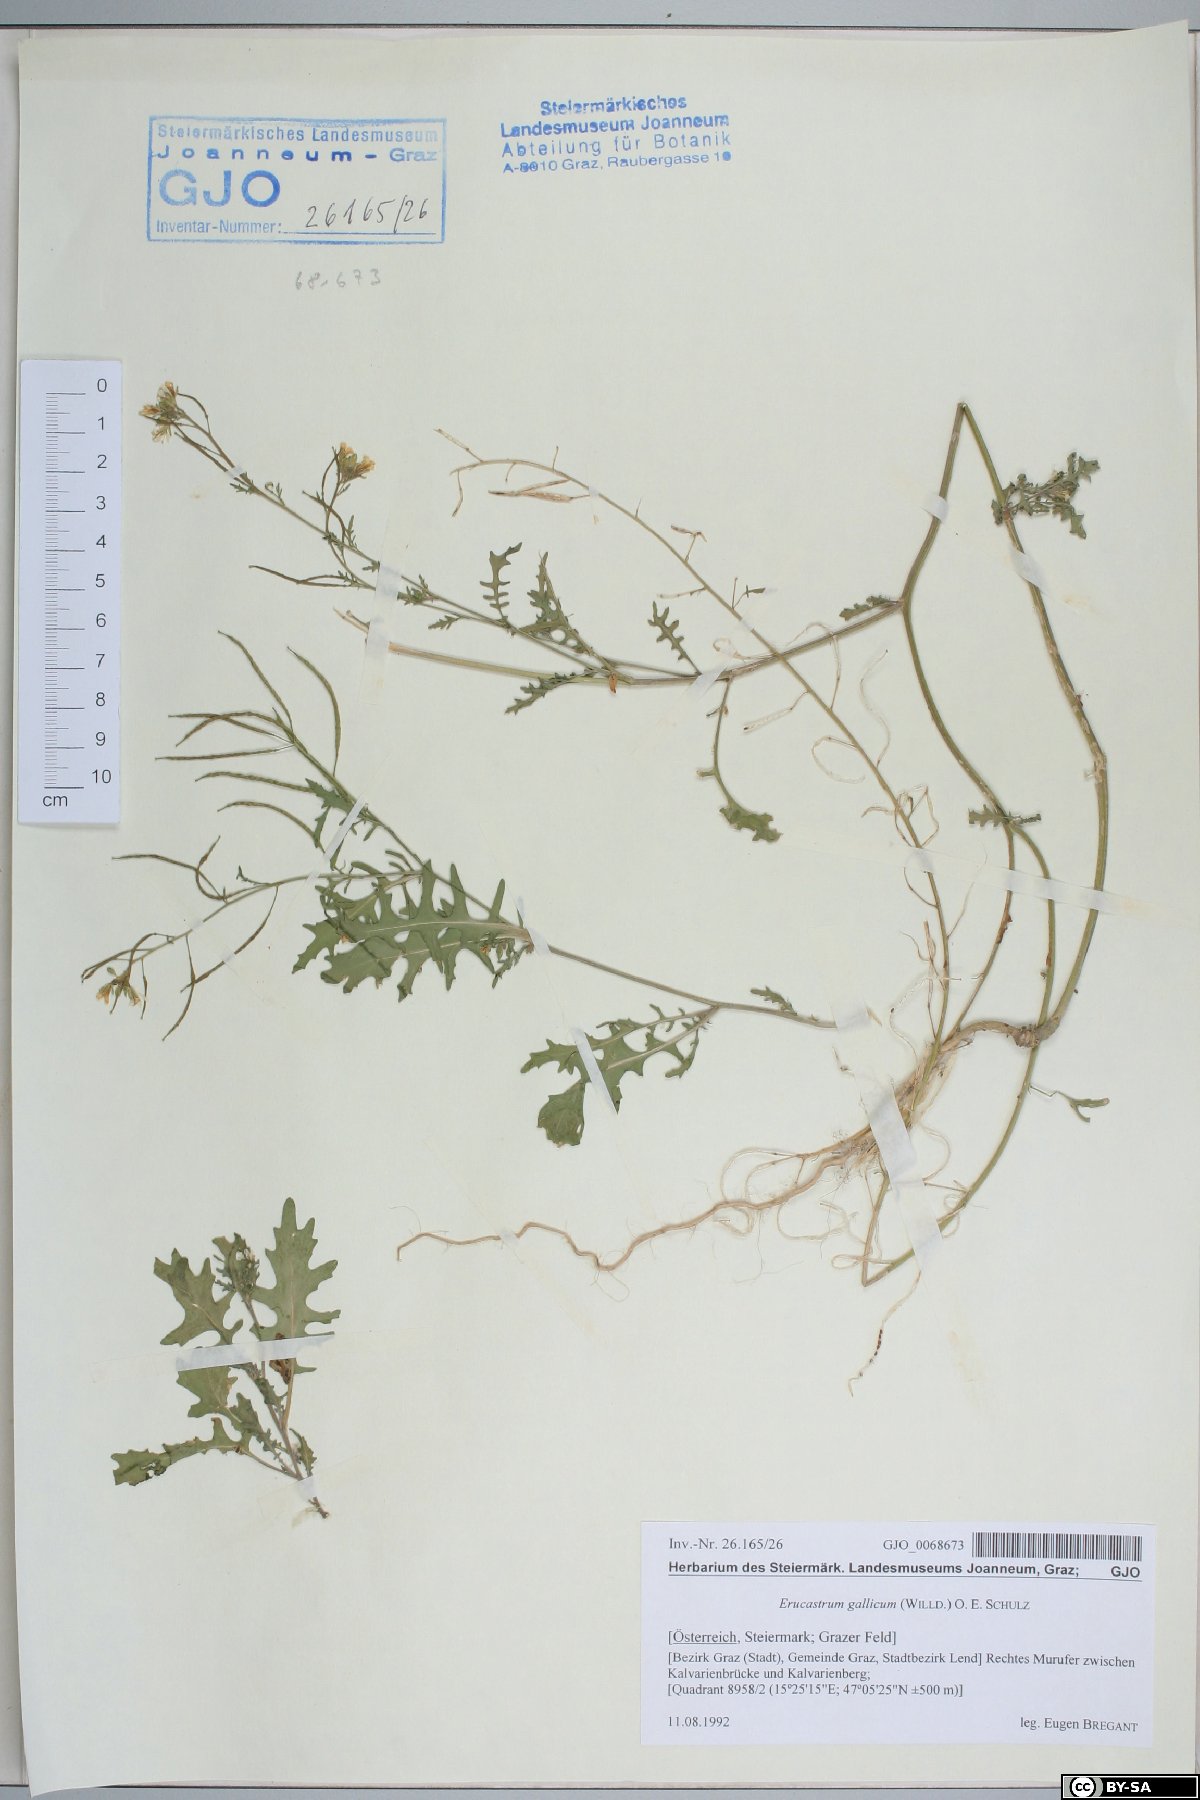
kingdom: Plantae
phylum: Tracheophyta
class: Magnoliopsida
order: Brassicales
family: Brassicaceae
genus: Erucastrum
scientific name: Erucastrum gallicum
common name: Hairy rocket
